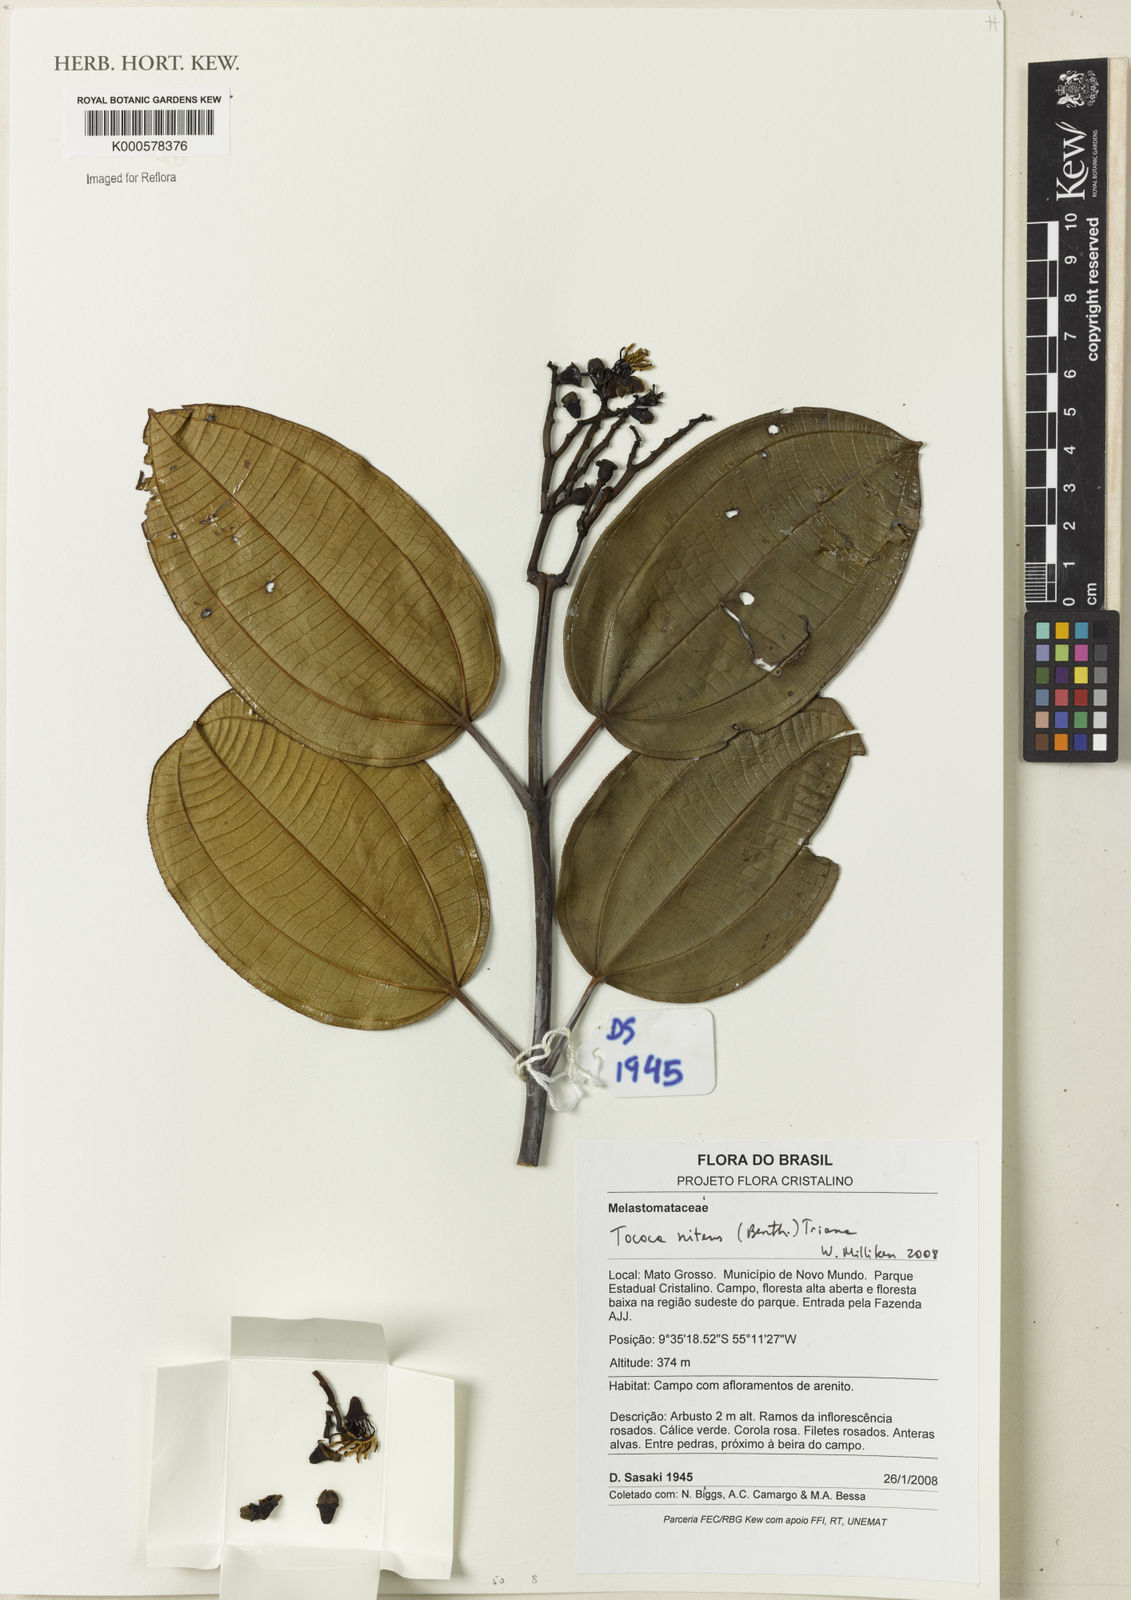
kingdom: Plantae
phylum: Tracheophyta
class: Magnoliopsida
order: Myrtales
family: Melastomataceae
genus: Miconia
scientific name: Miconia nitens
